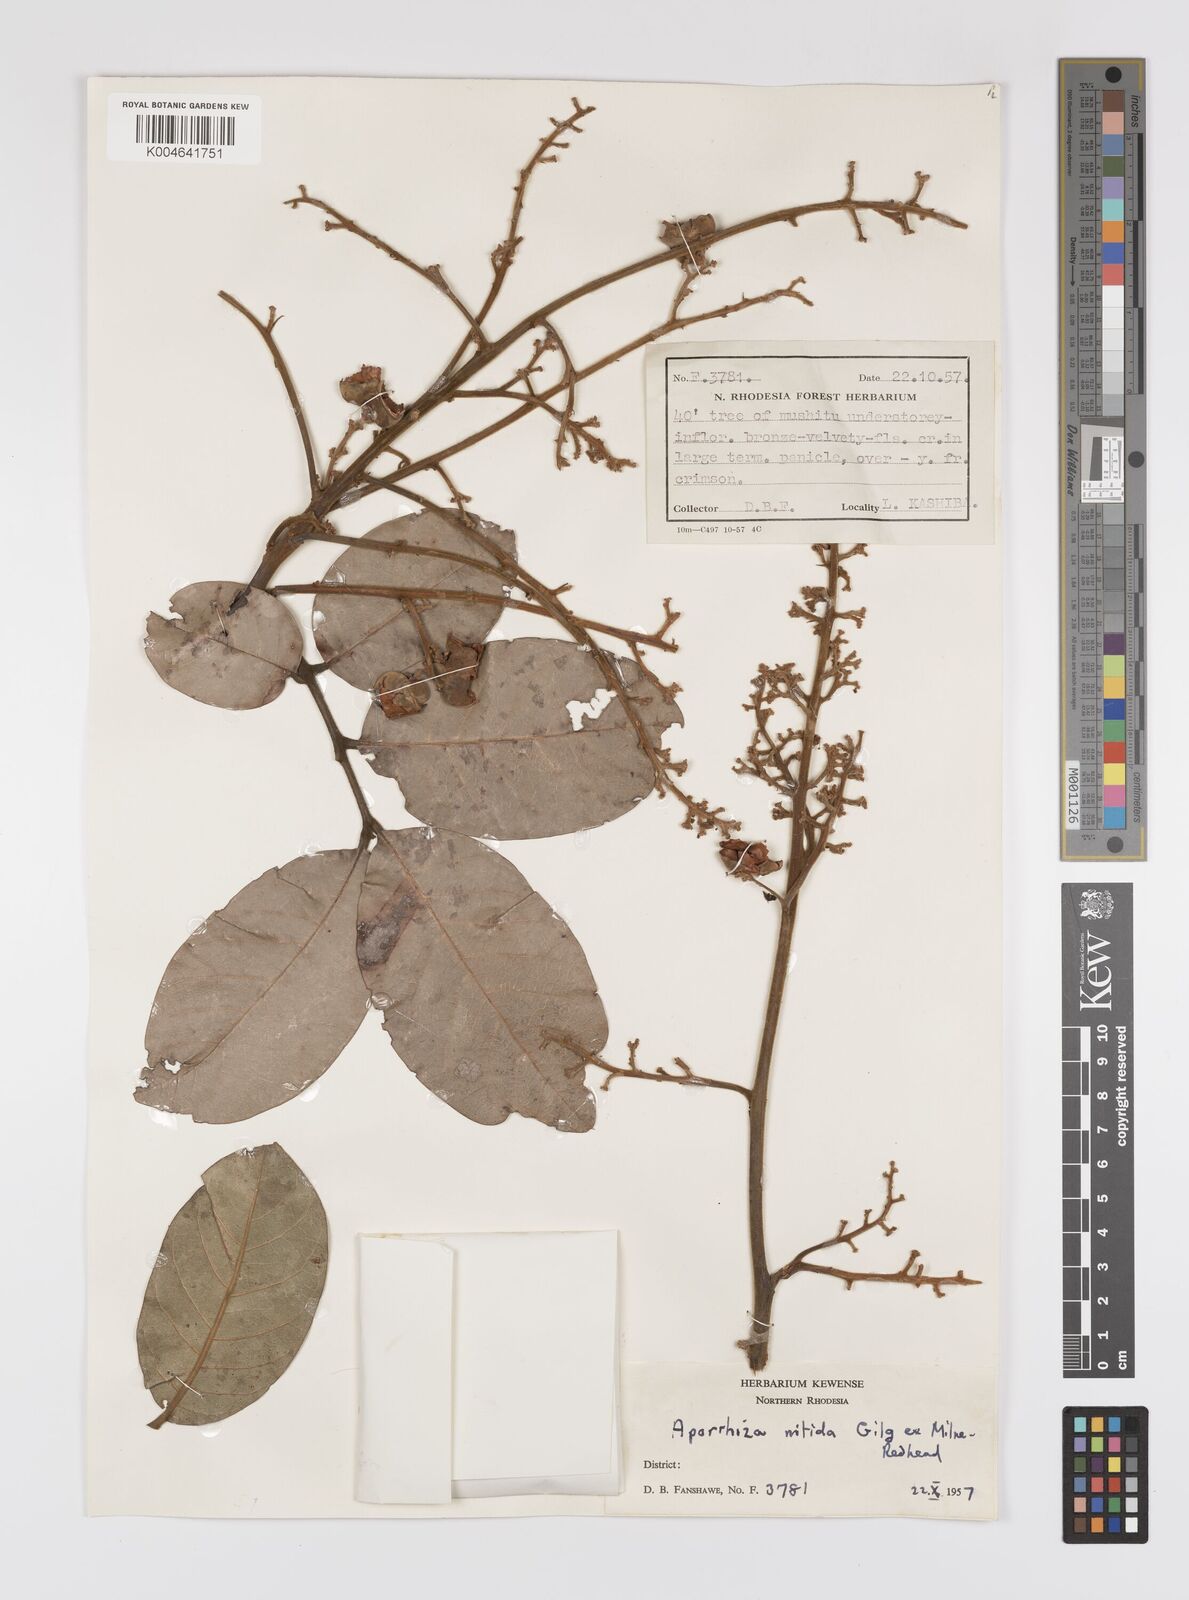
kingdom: Plantae
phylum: Tracheophyta
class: Magnoliopsida
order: Sapindales
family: Sapindaceae
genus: Aporrhiza
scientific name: Aporrhiza paniculata
